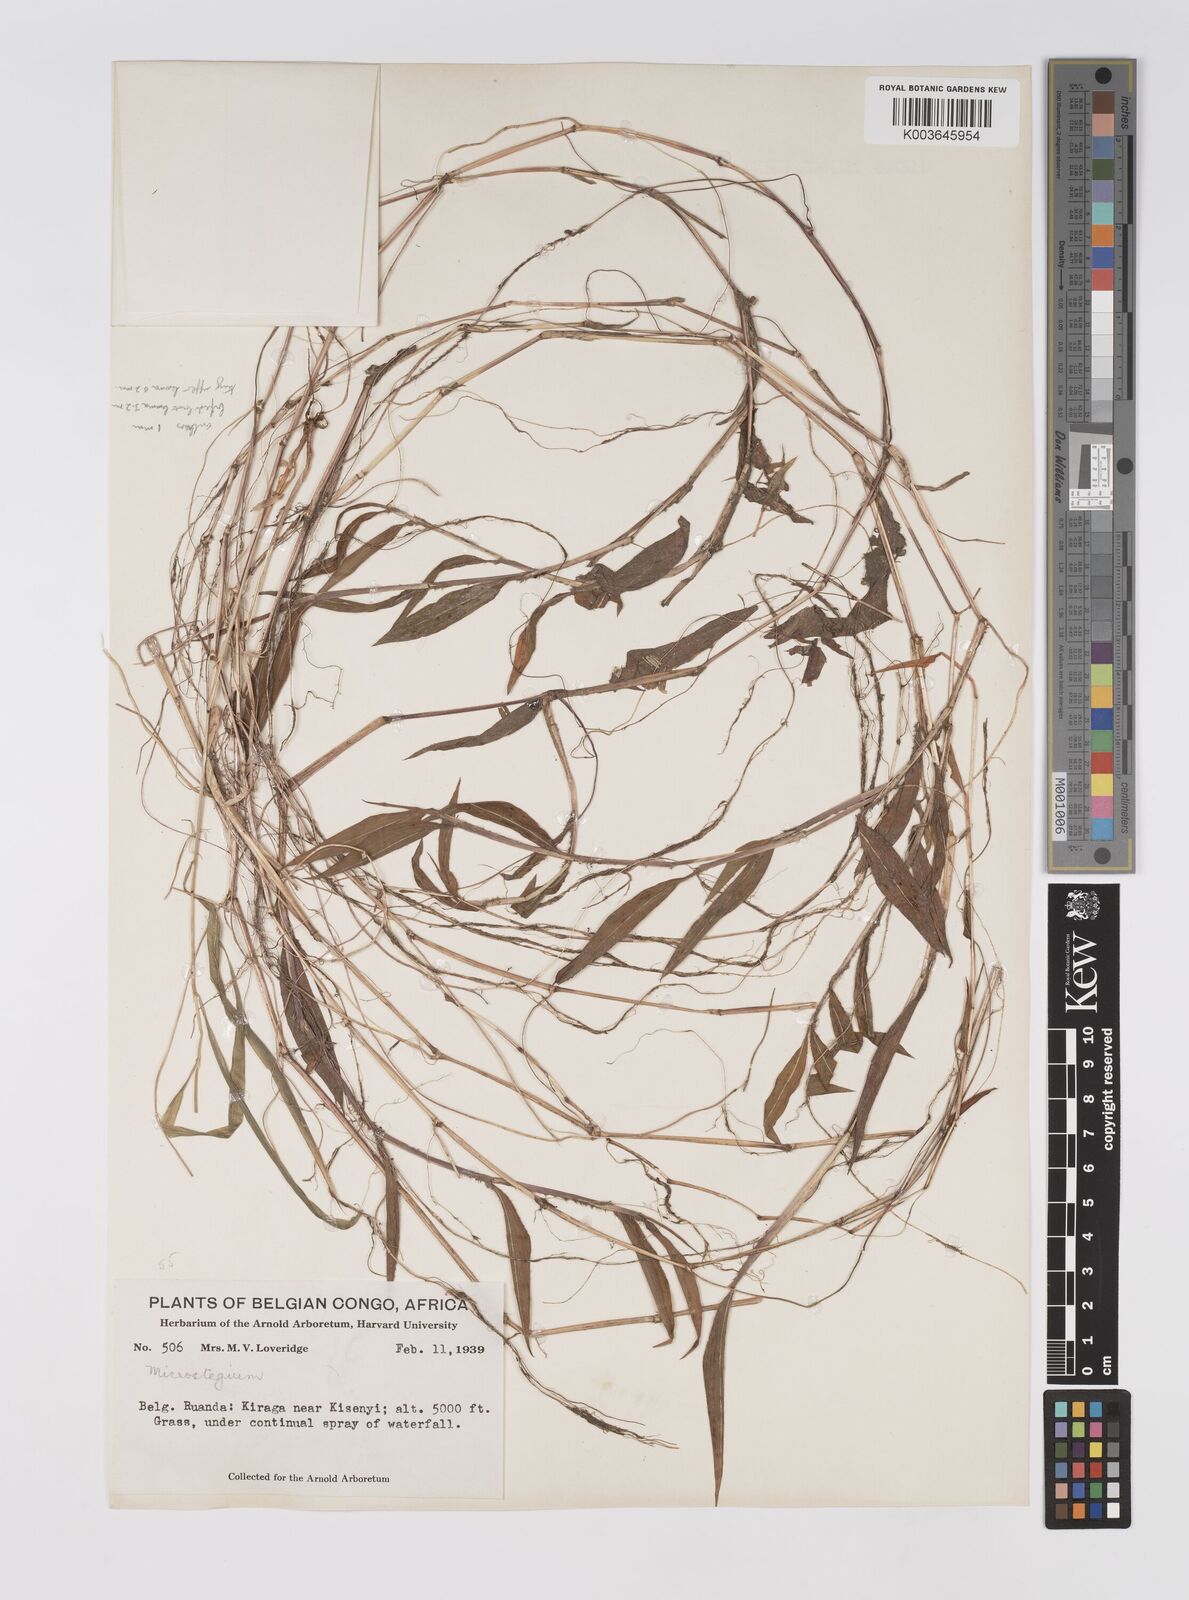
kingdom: Plantae
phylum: Tracheophyta
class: Liliopsida
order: Poales
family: Poaceae
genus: Microstegium
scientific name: Microstegium vimineum
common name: Japanese stiltgrass
